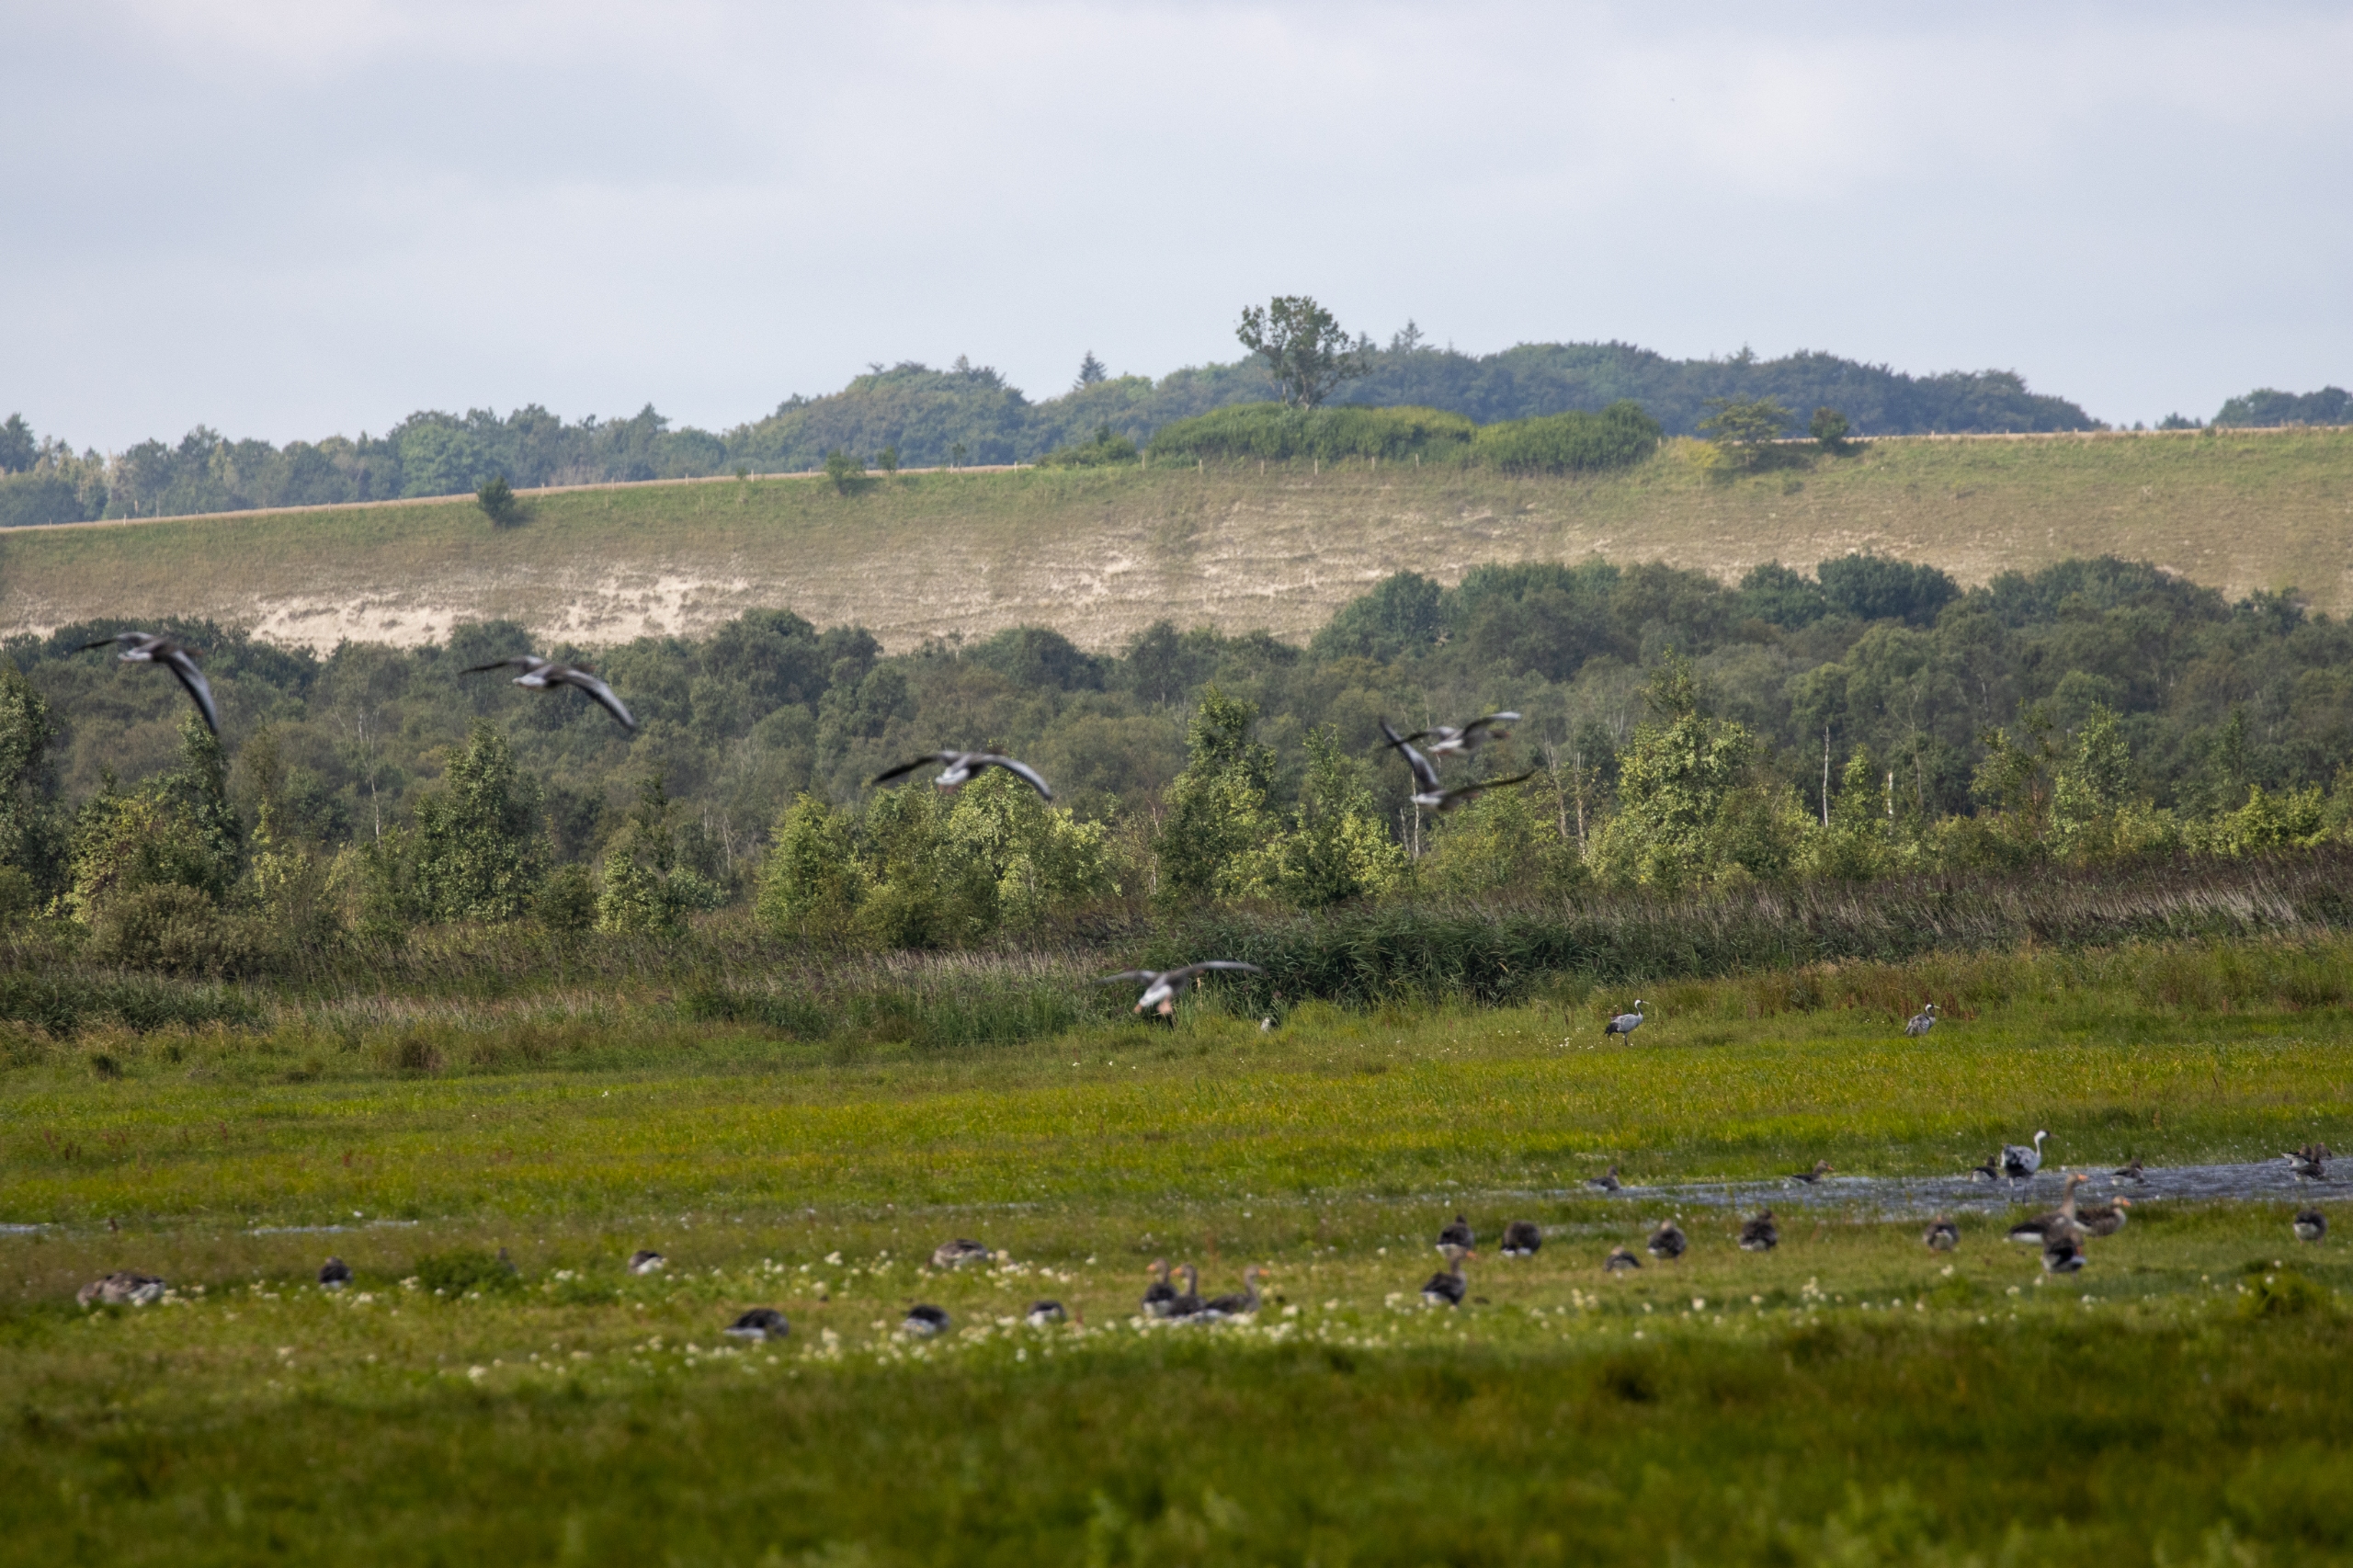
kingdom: Animalia
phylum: Chordata
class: Aves
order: Anseriformes
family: Anatidae
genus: Anser
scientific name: Anser anser
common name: Grågås
